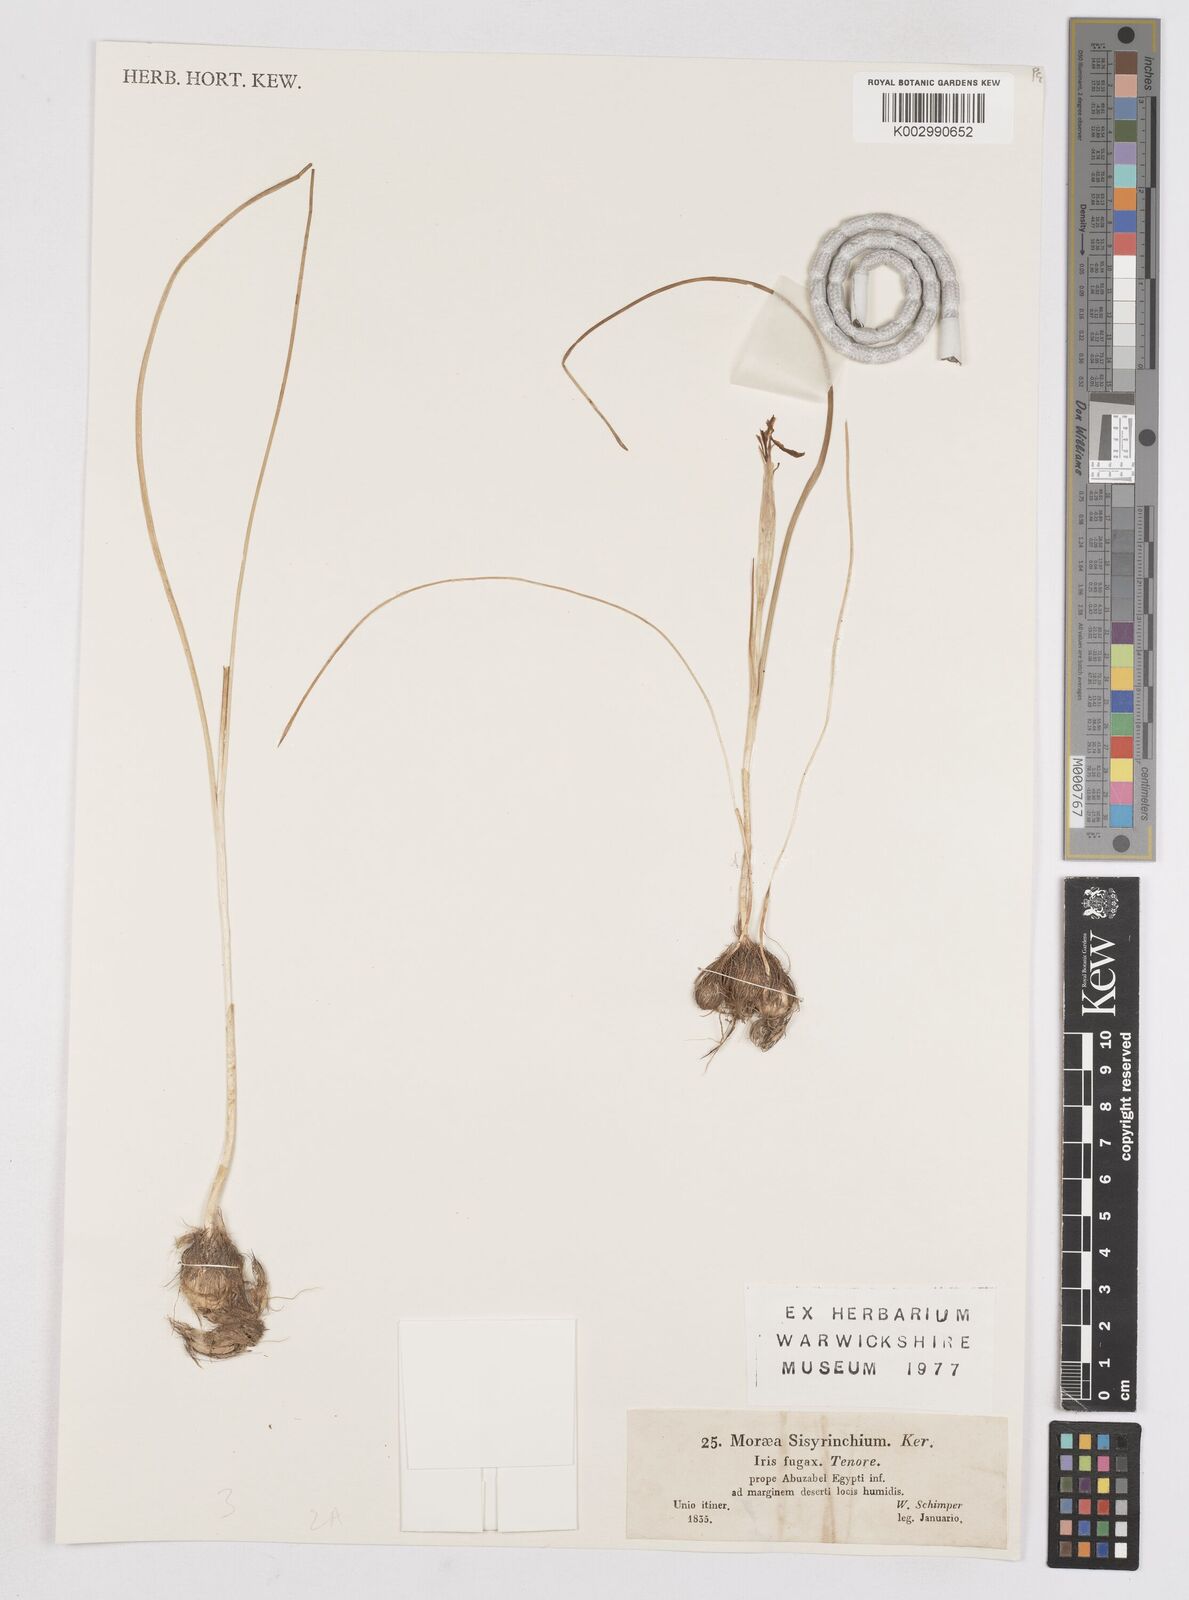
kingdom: Plantae
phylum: Tracheophyta
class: Liliopsida
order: Asparagales
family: Iridaceae
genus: Moraea
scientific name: Moraea sisyrinchium
